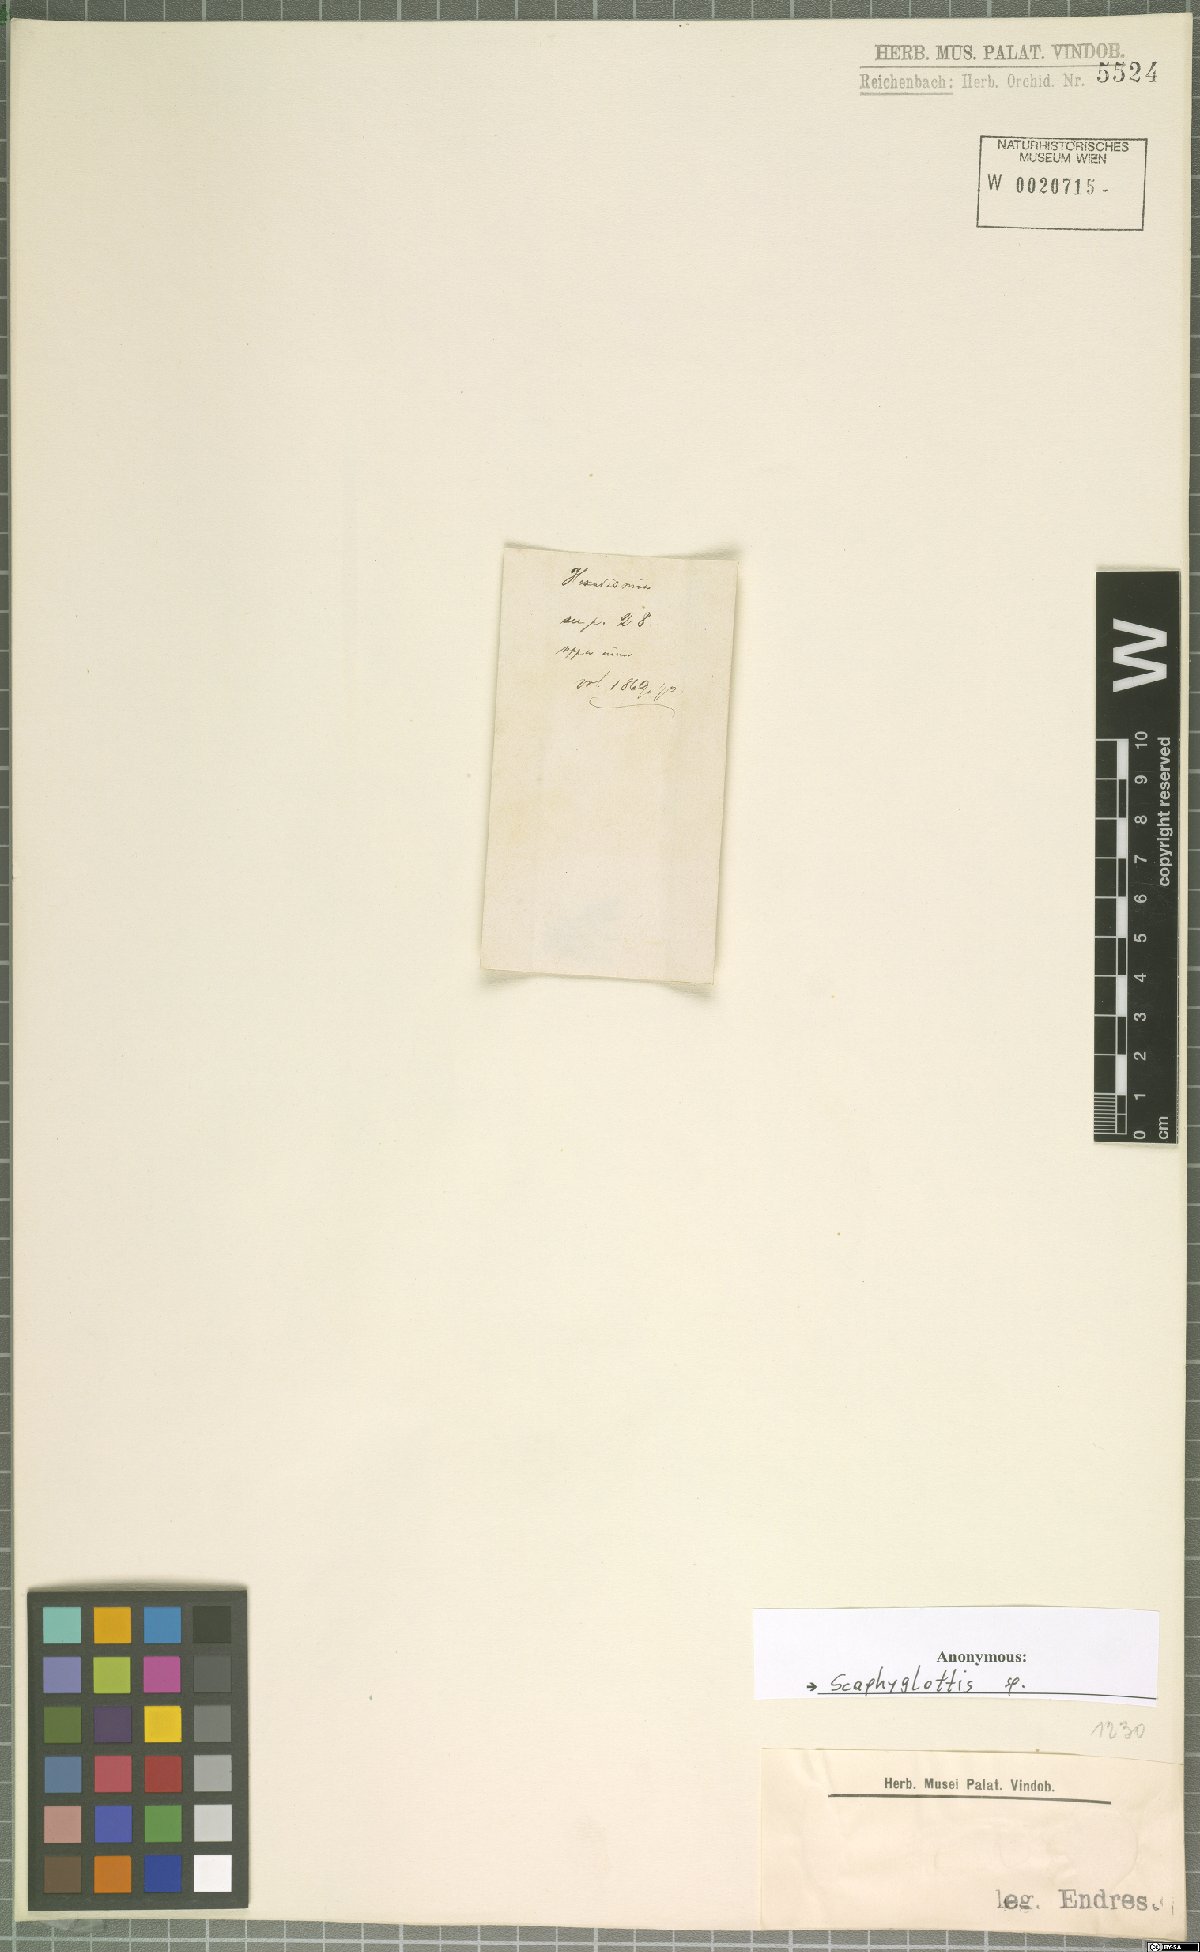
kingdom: Plantae
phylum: Tracheophyta
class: Liliopsida
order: Asparagales
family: Orchidaceae
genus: Scaphyglottis
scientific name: Scaphyglottis
